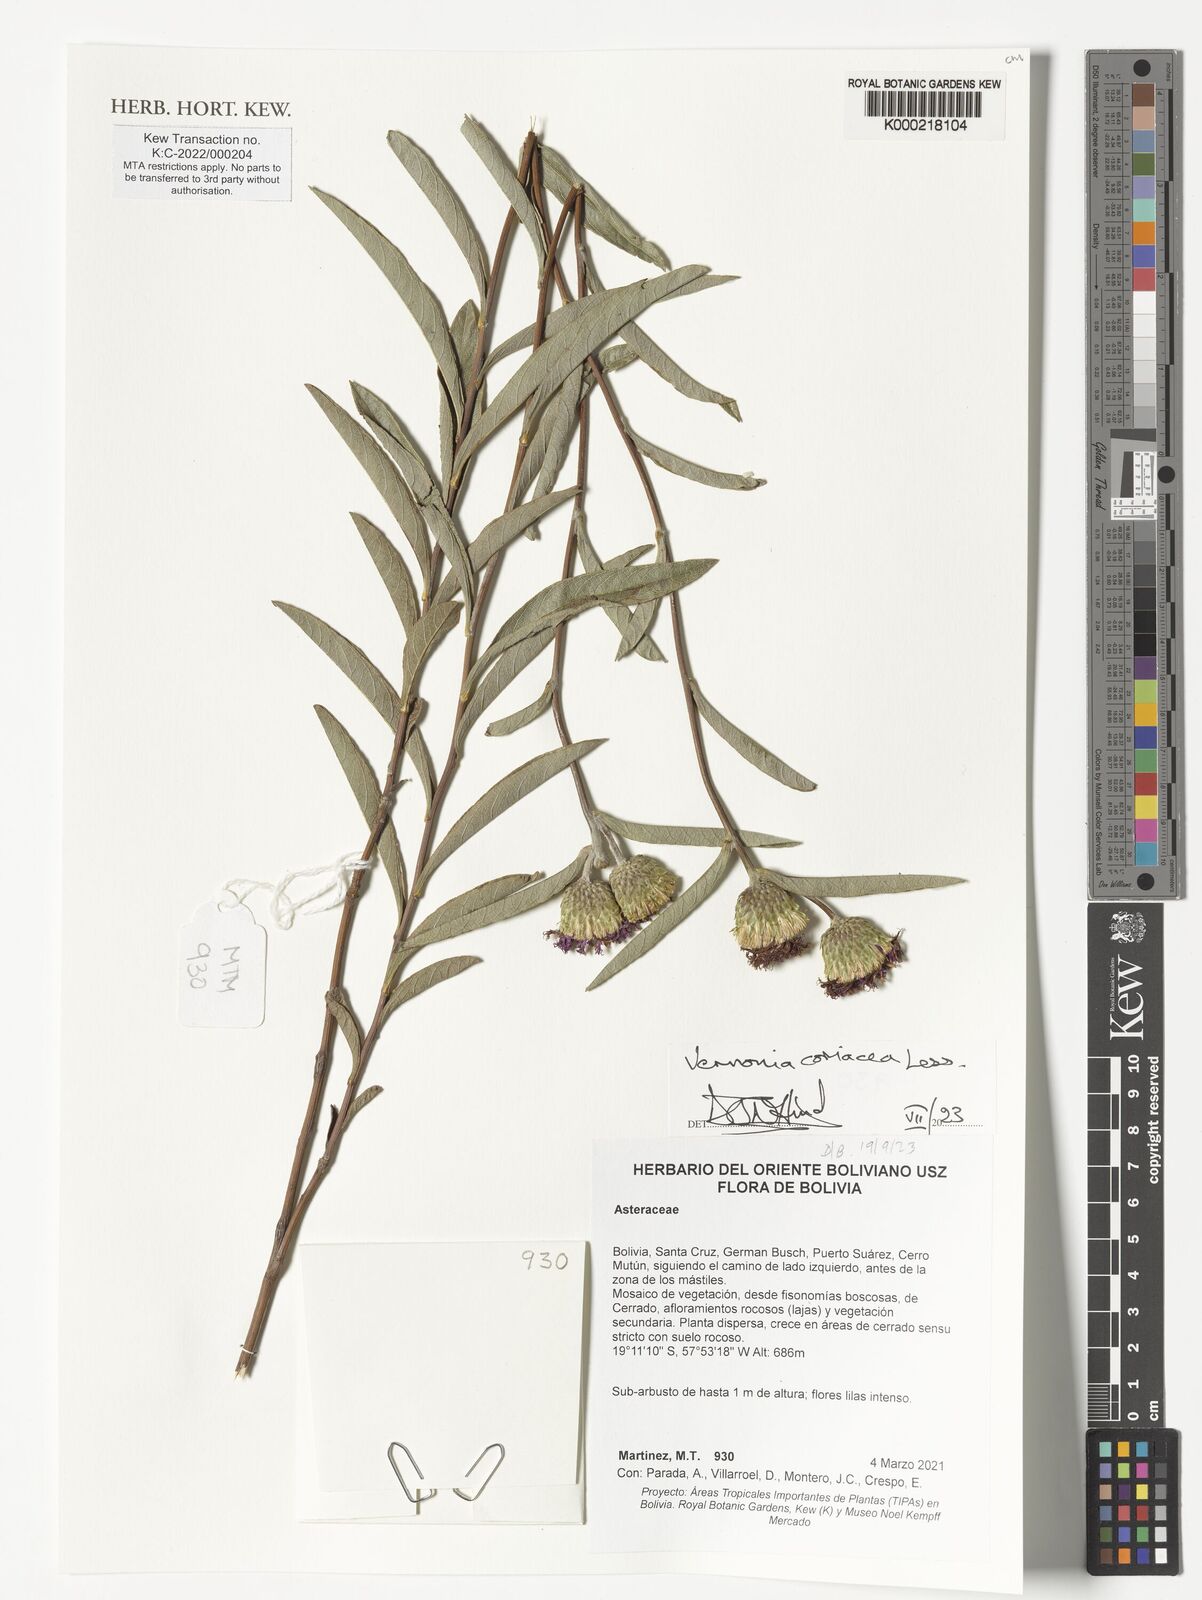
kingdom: Plantae
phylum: Tracheophyta
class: Magnoliopsida
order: Asterales
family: Asteraceae
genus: Lessingianthus
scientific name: Lessingianthus coriaceus
